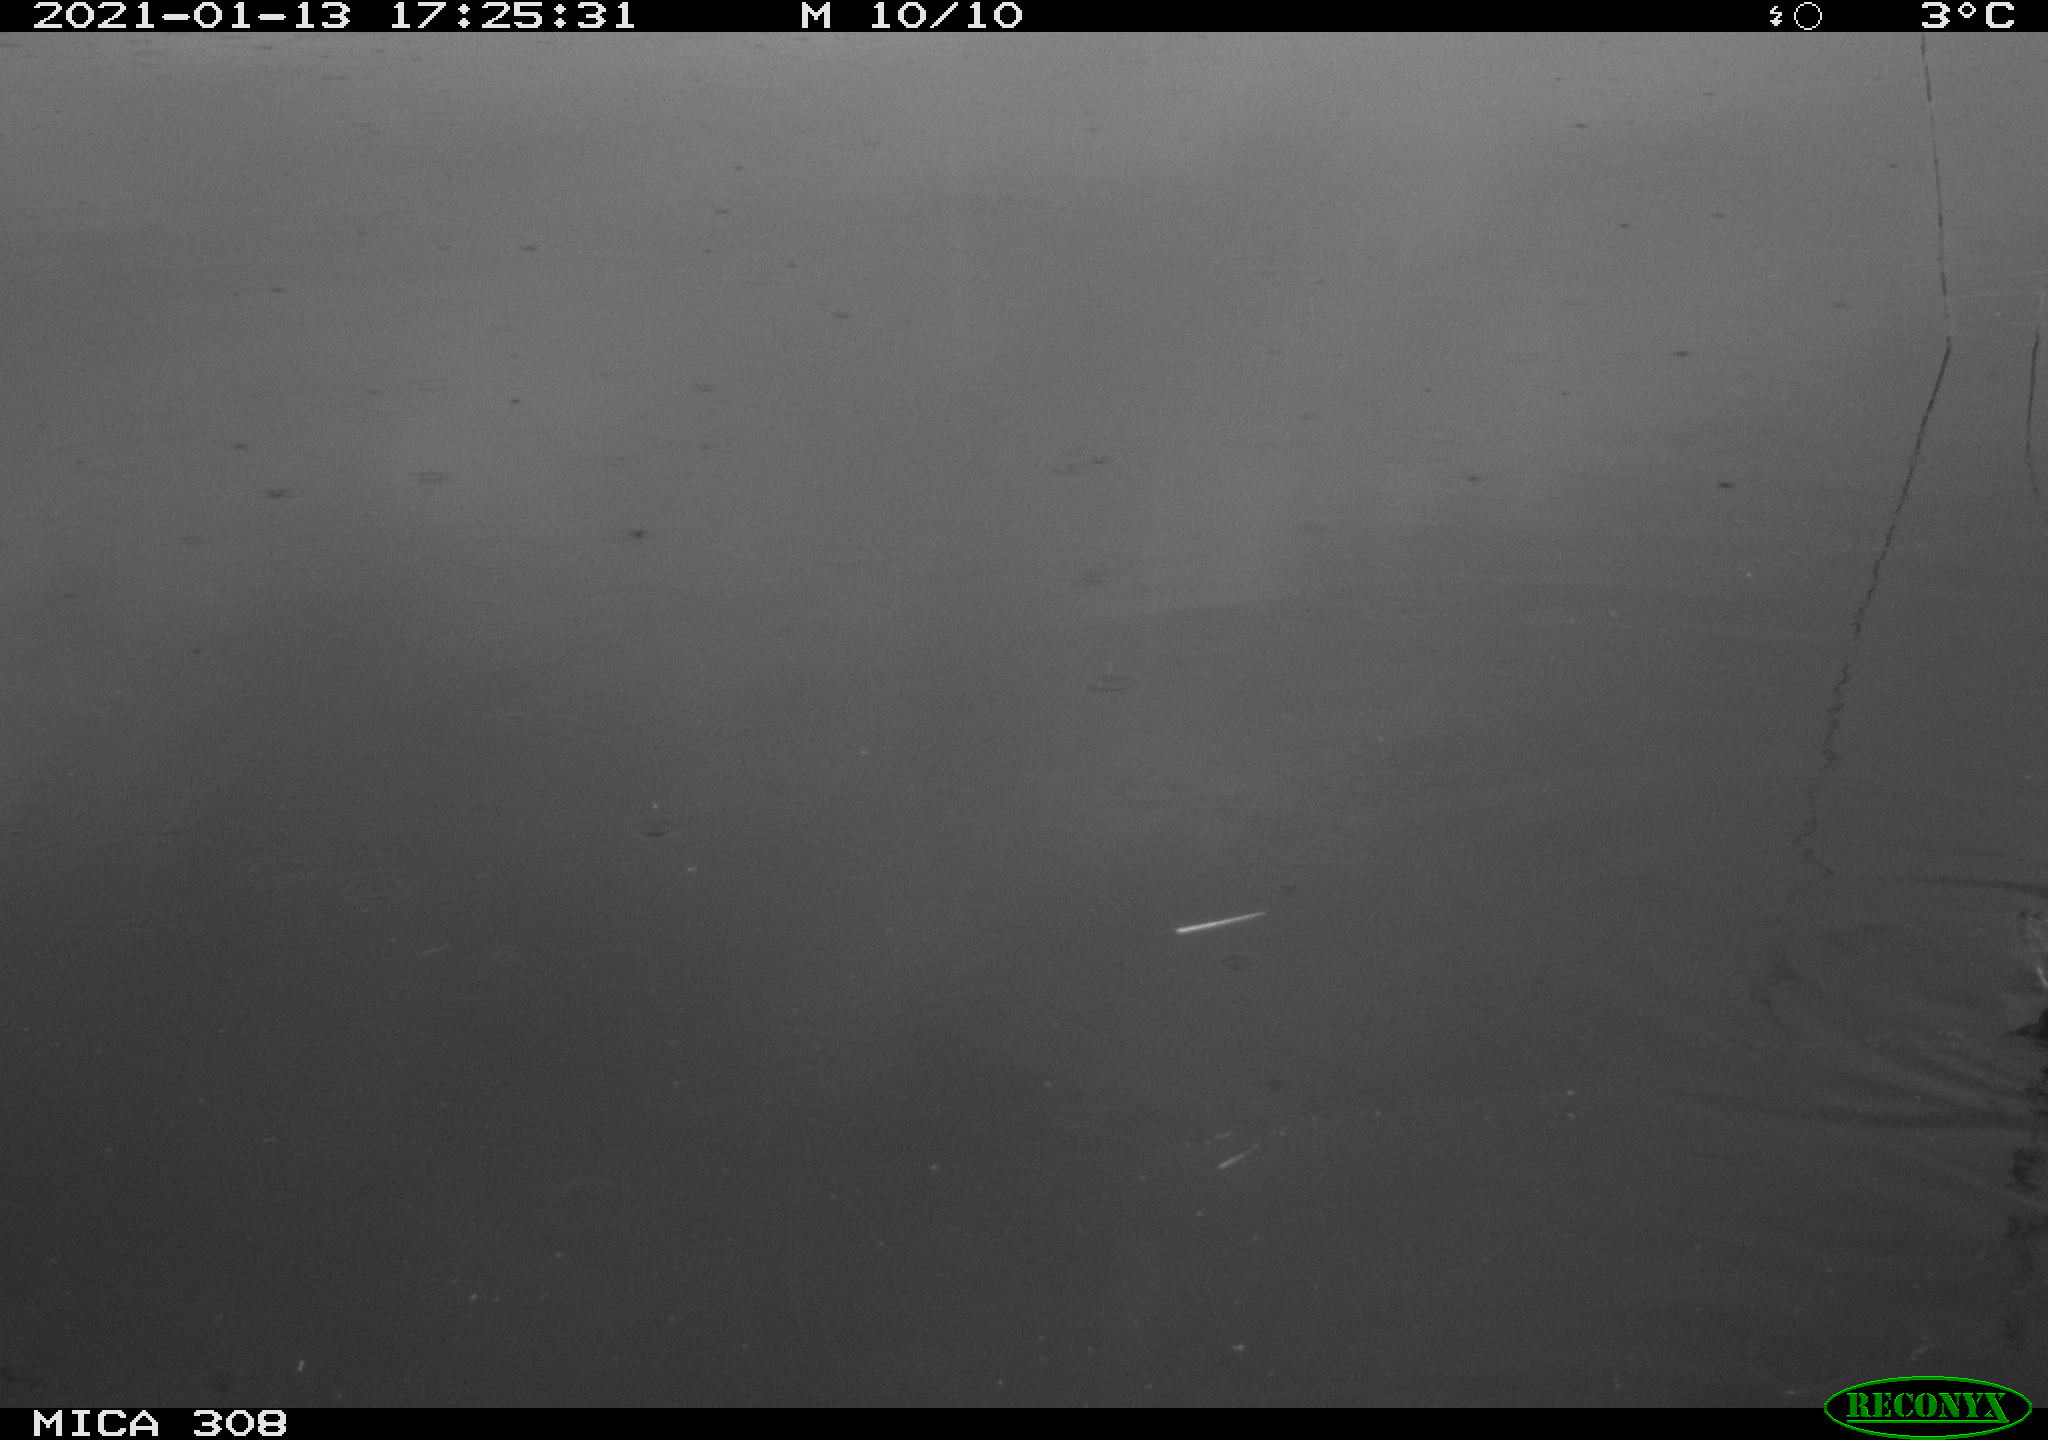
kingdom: Animalia
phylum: Chordata
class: Aves
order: Gruiformes
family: Rallidae
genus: Gallinula
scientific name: Gallinula chloropus
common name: Common moorhen
